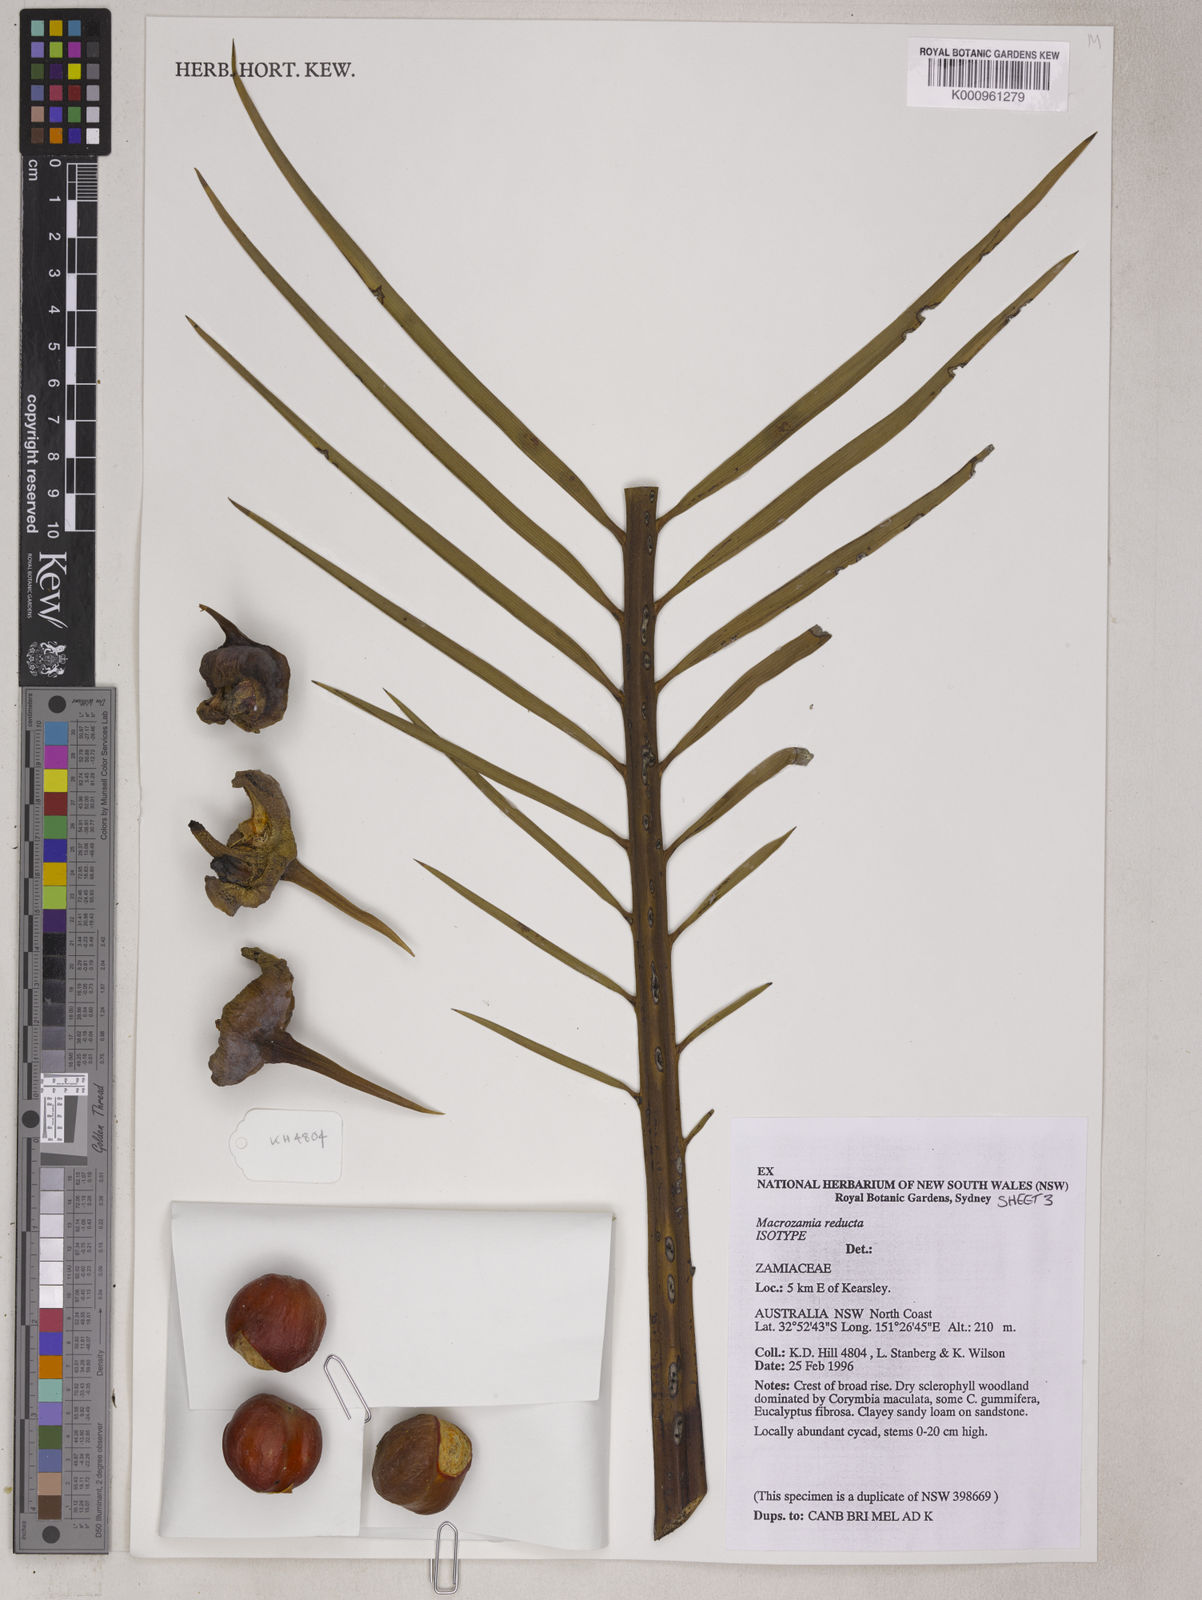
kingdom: Plantae
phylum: Tracheophyta
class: Cycadopsida
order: Cycadales
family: Zamiaceae
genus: Macrozamia
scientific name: Macrozamia reducta
